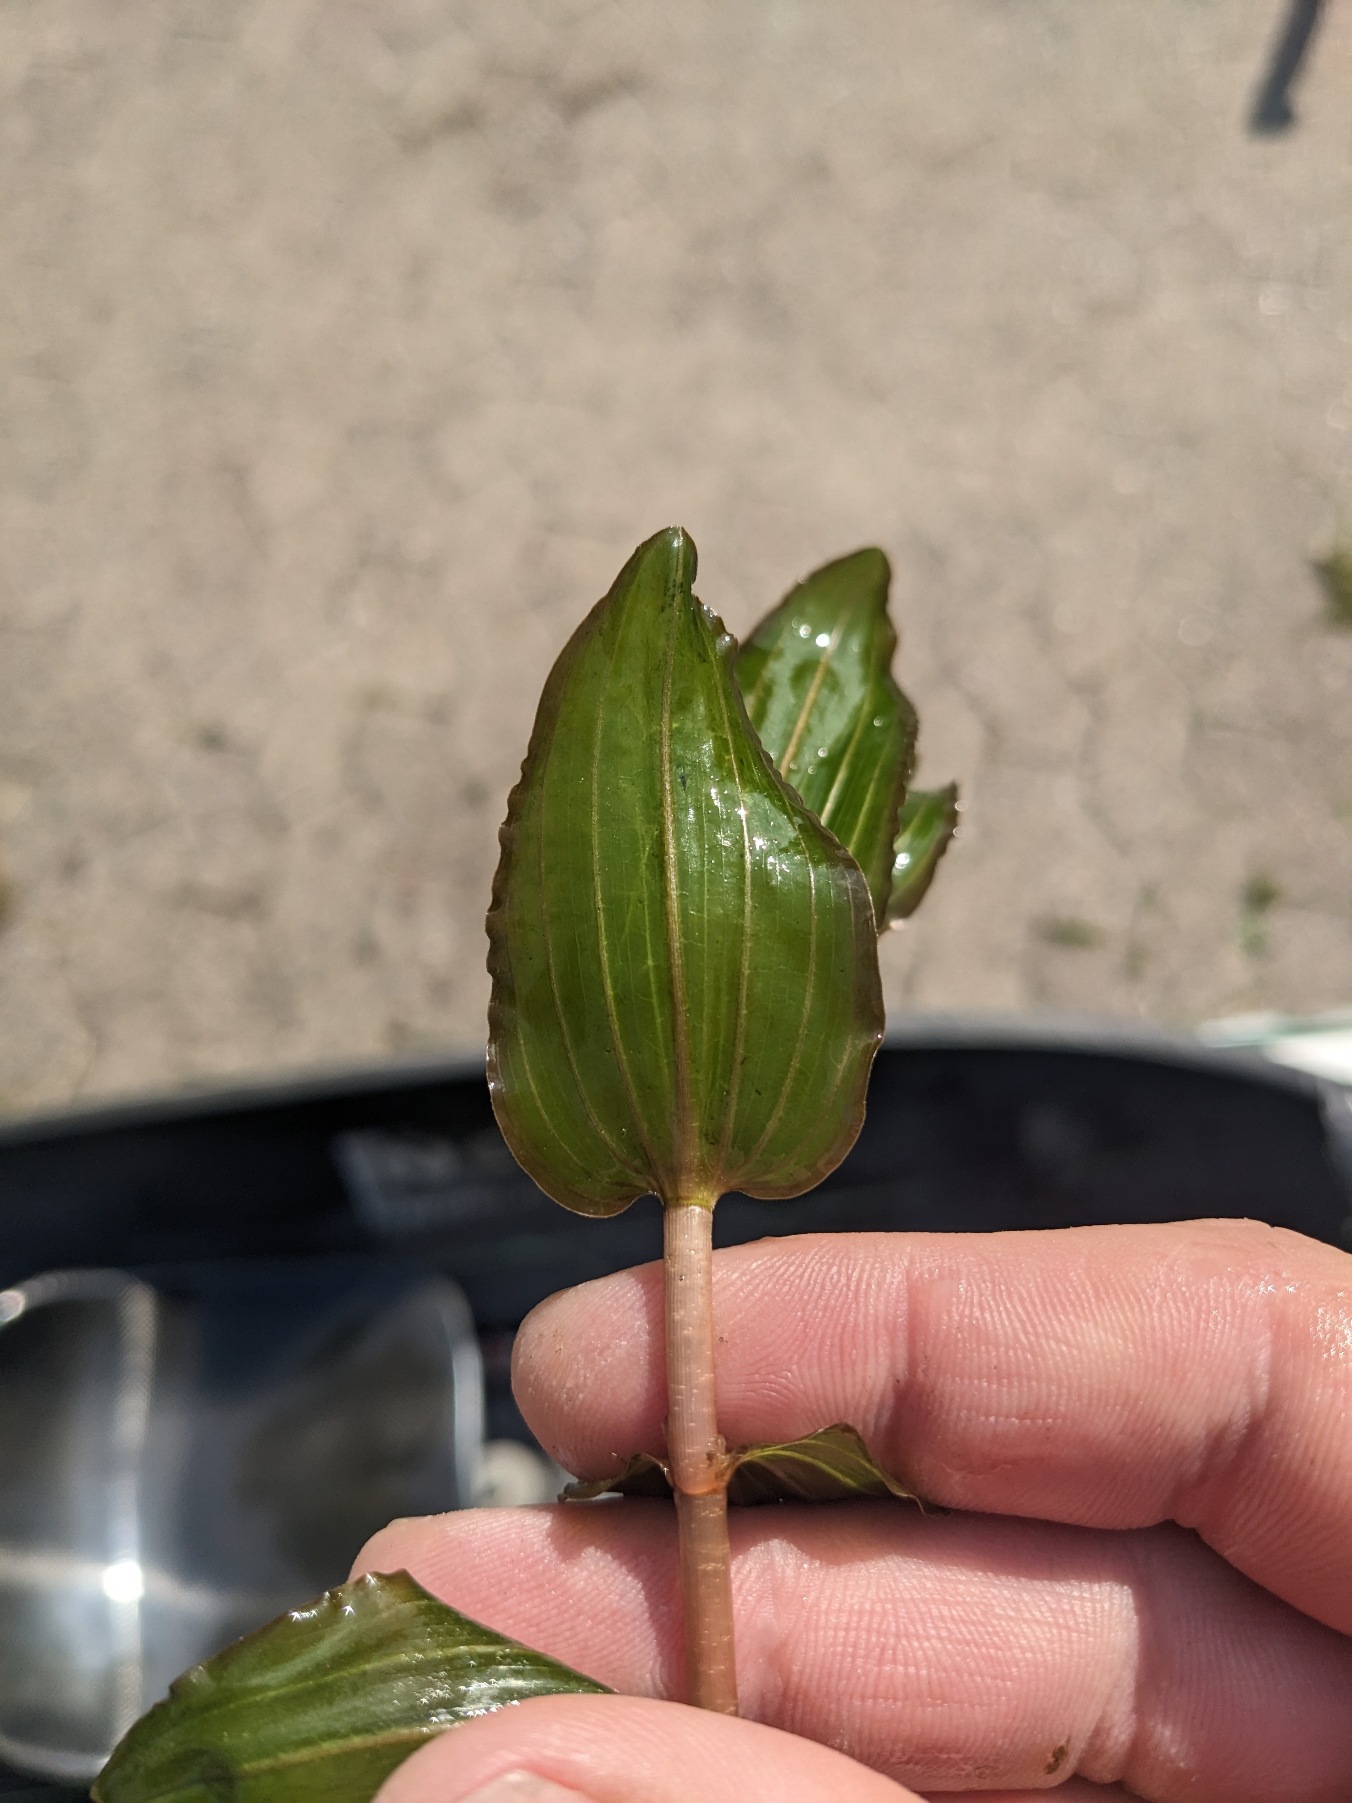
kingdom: Plantae
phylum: Tracheophyta
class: Liliopsida
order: Alismatales
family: Potamogetonaceae
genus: Potamogeton
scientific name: Potamogeton perfoliatus
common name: Hjertebladet vandaks
